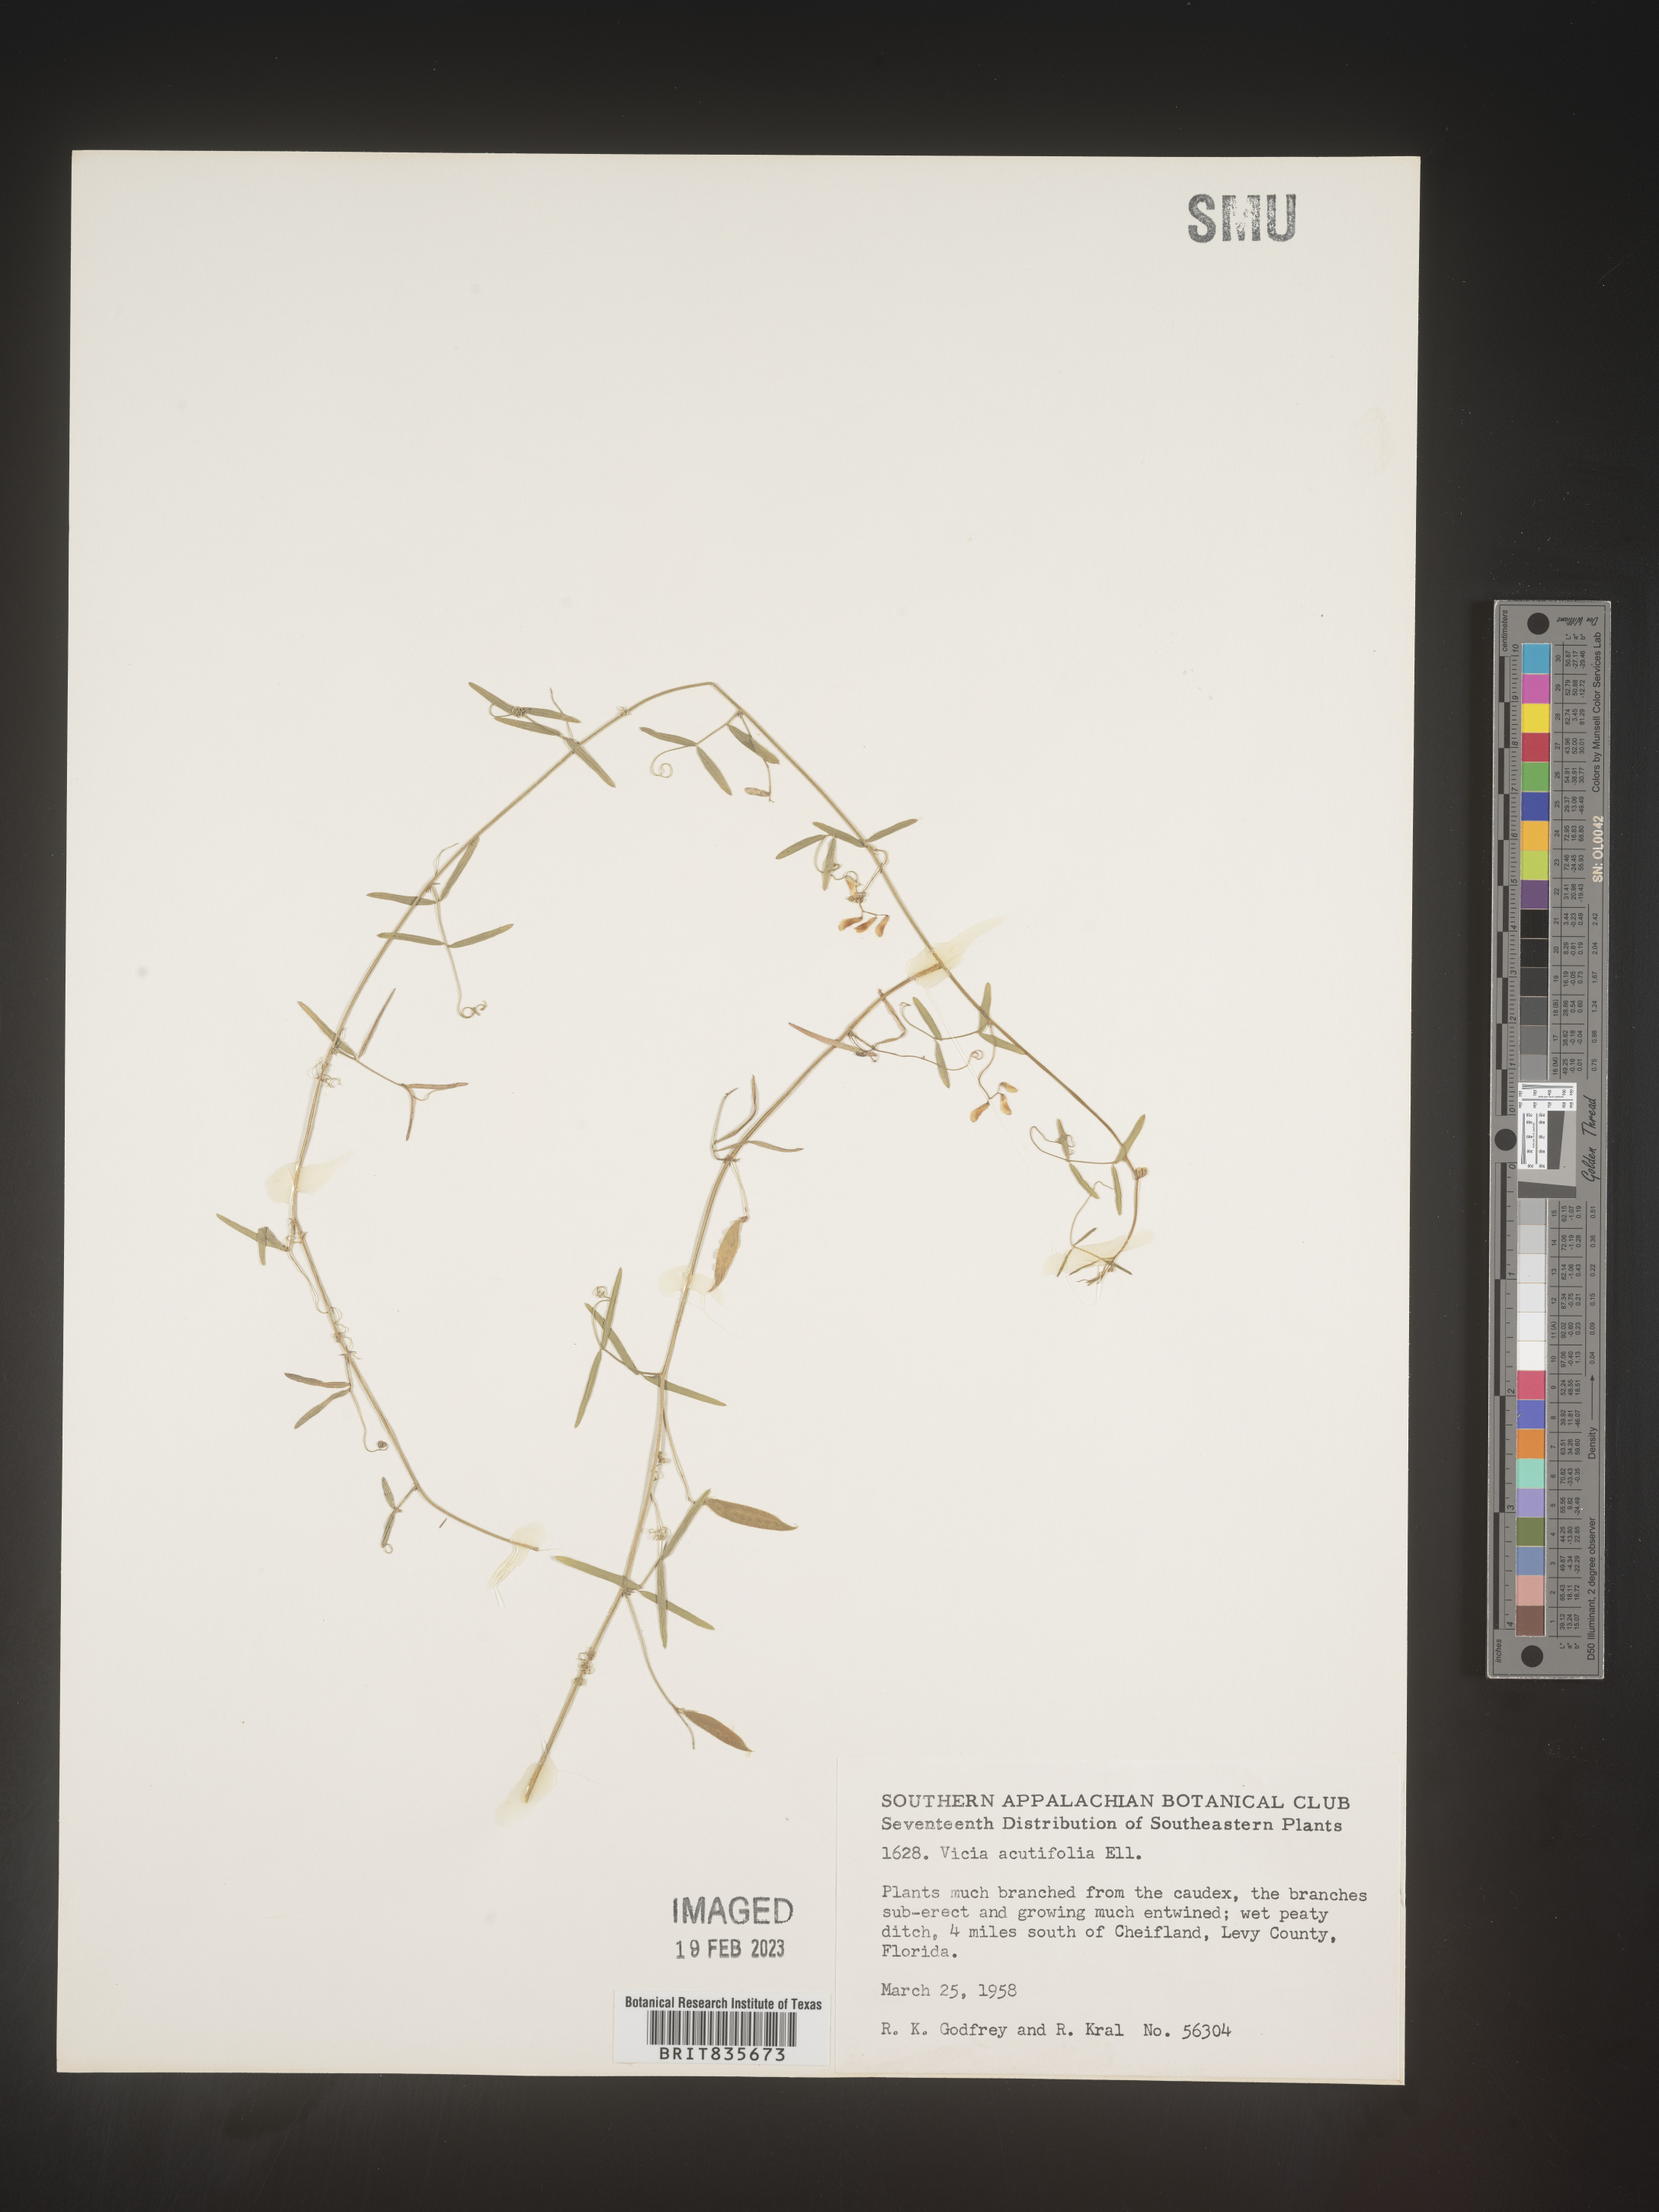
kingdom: Plantae
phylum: Tracheophyta
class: Magnoliopsida
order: Fabales
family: Fabaceae
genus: Vicia
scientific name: Vicia acutifolia
